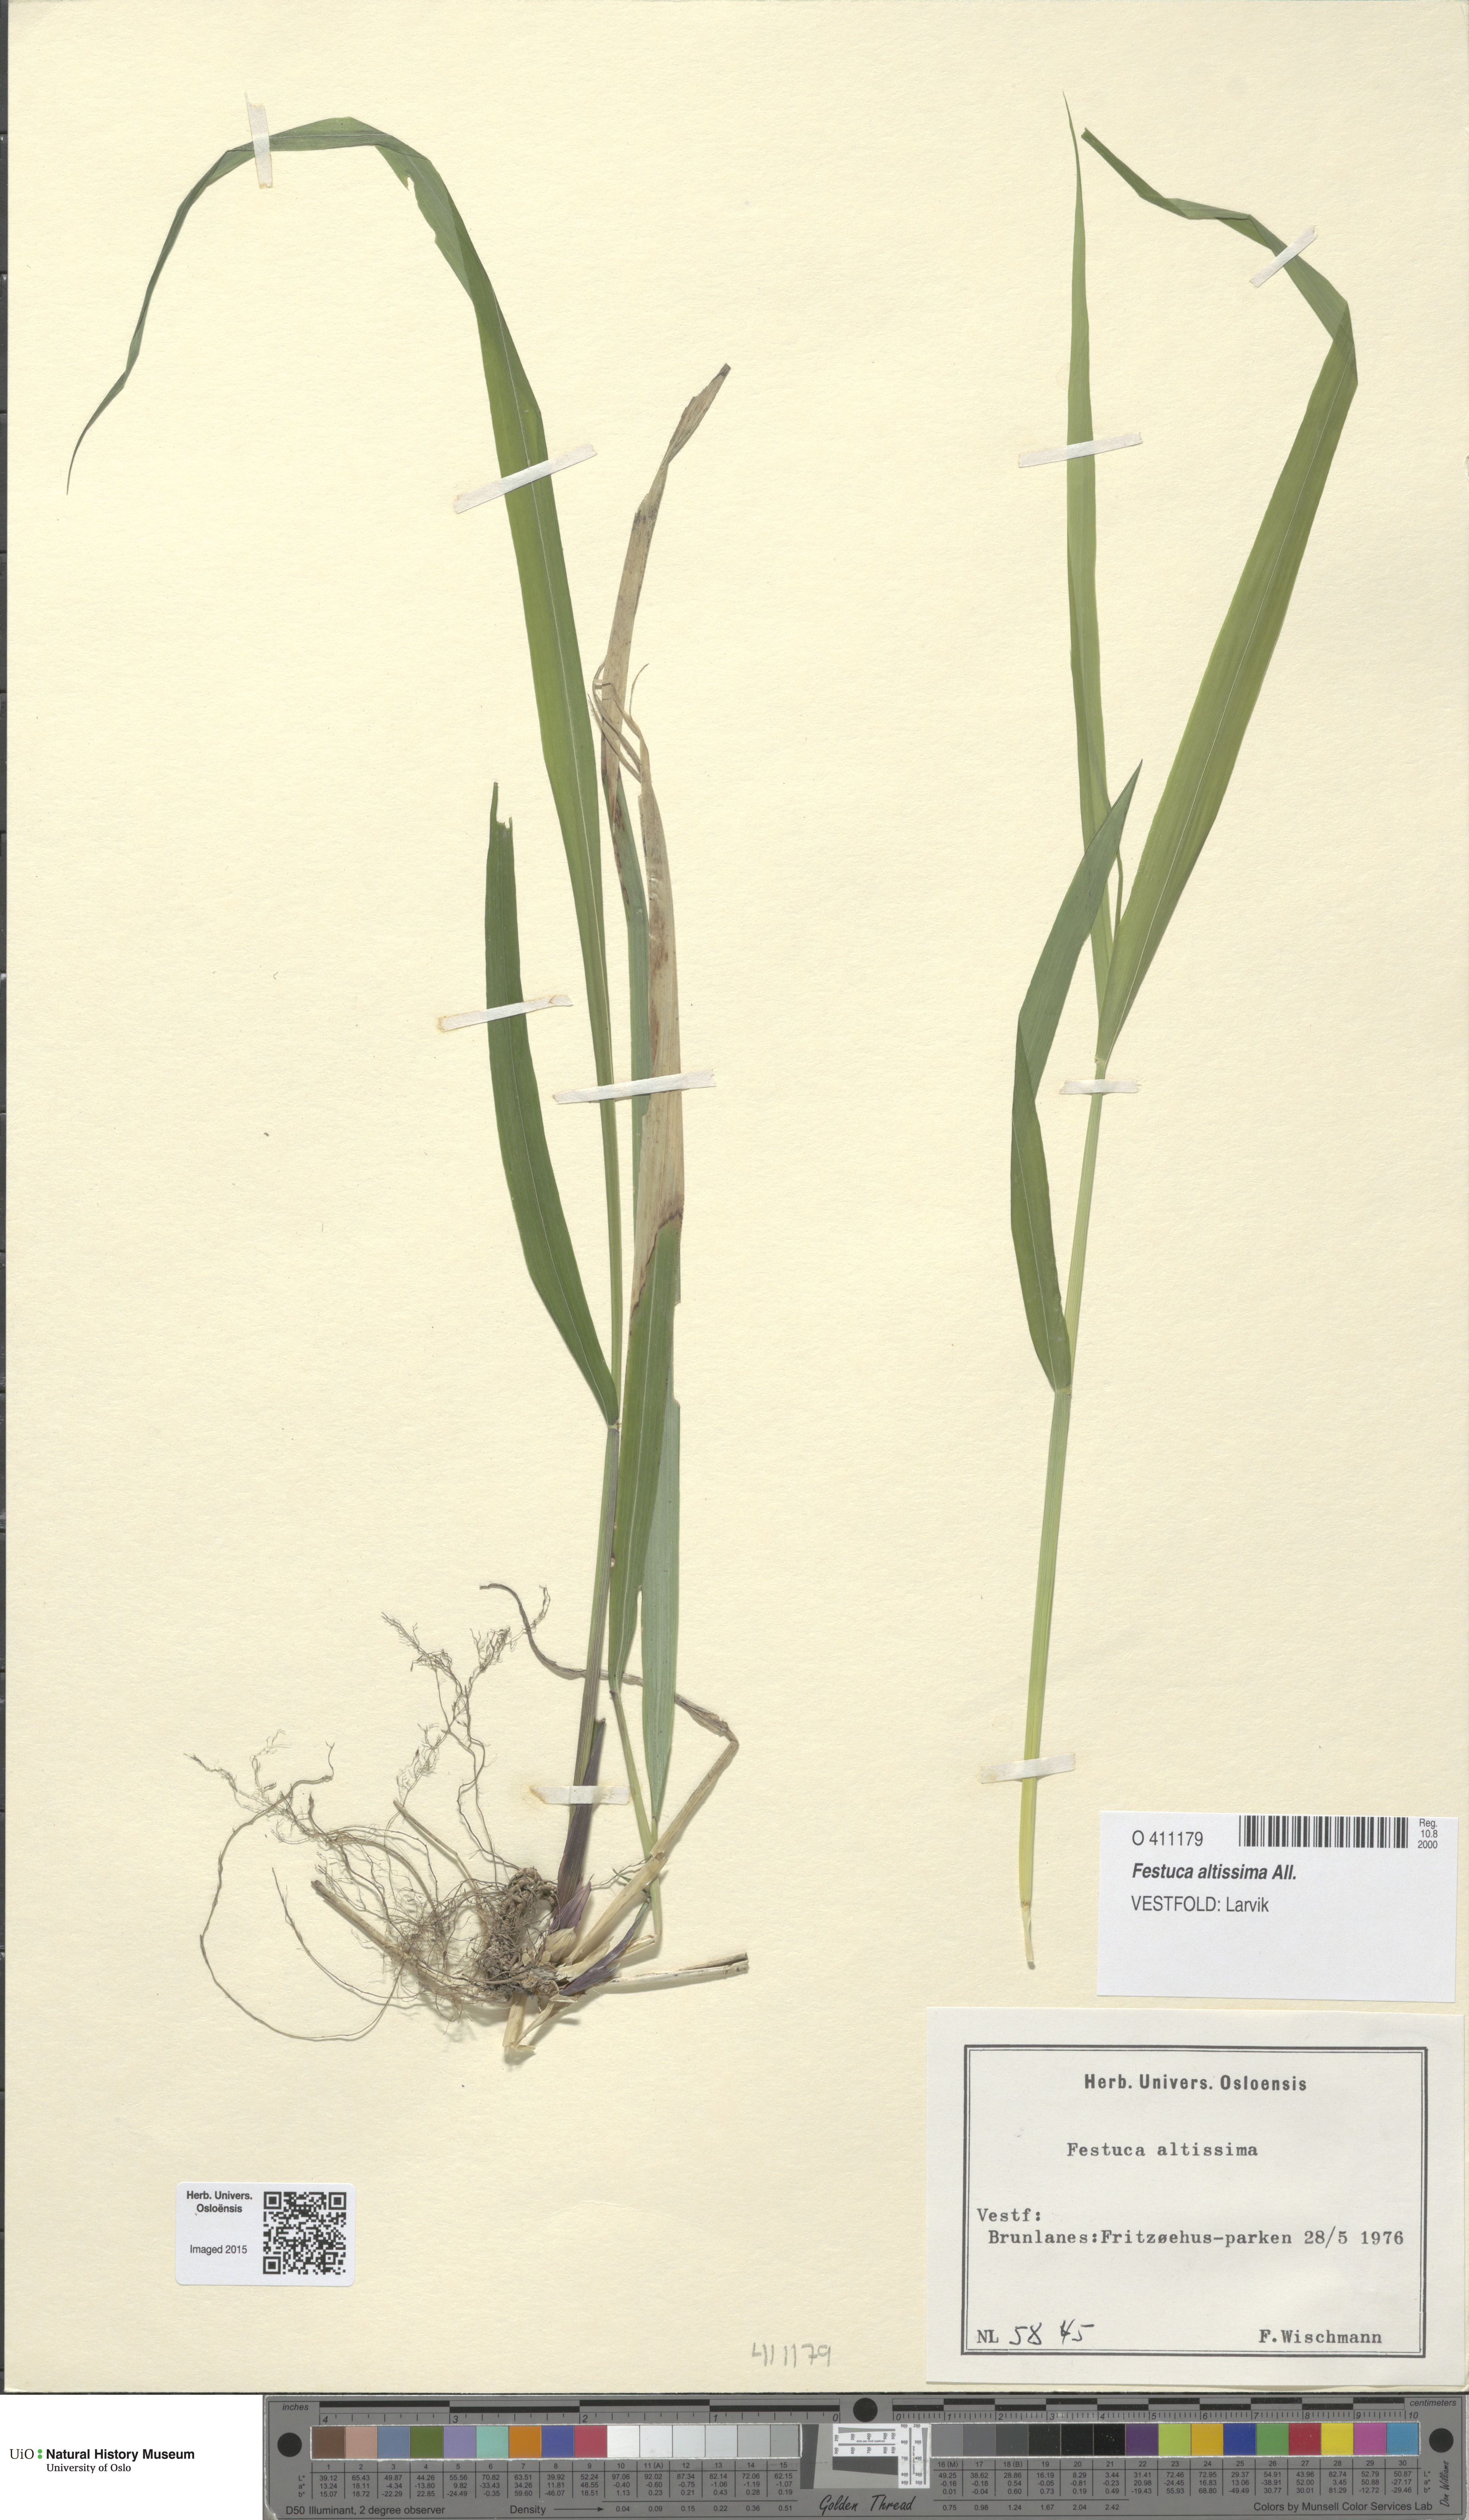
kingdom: Plantae
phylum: Tracheophyta
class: Liliopsida
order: Poales
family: Poaceae
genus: Festuca
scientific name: Festuca altissima
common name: Wood fescue
